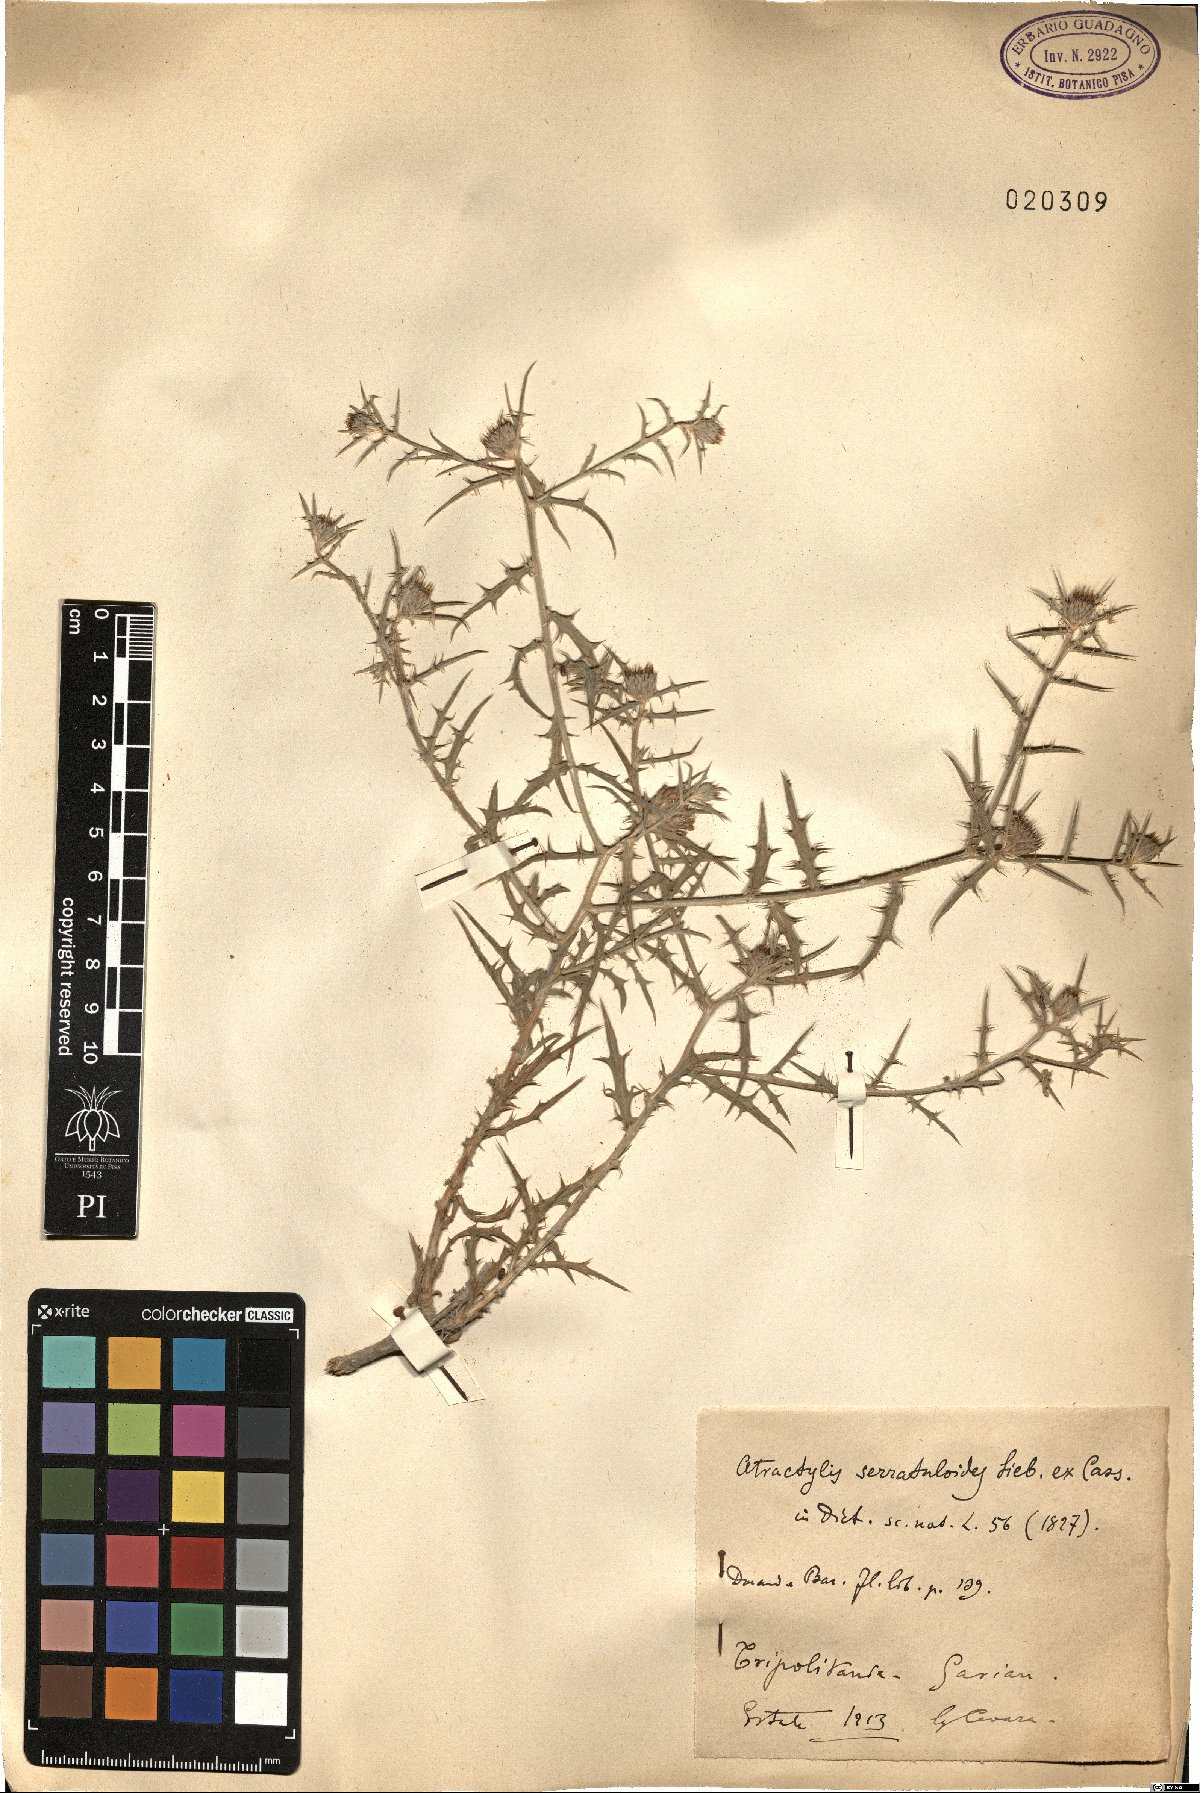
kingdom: Plantae
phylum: Tracheophyta
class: Magnoliopsida
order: Asterales
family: Asteraceae
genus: Atractylis
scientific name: Atractylis serratuloides
